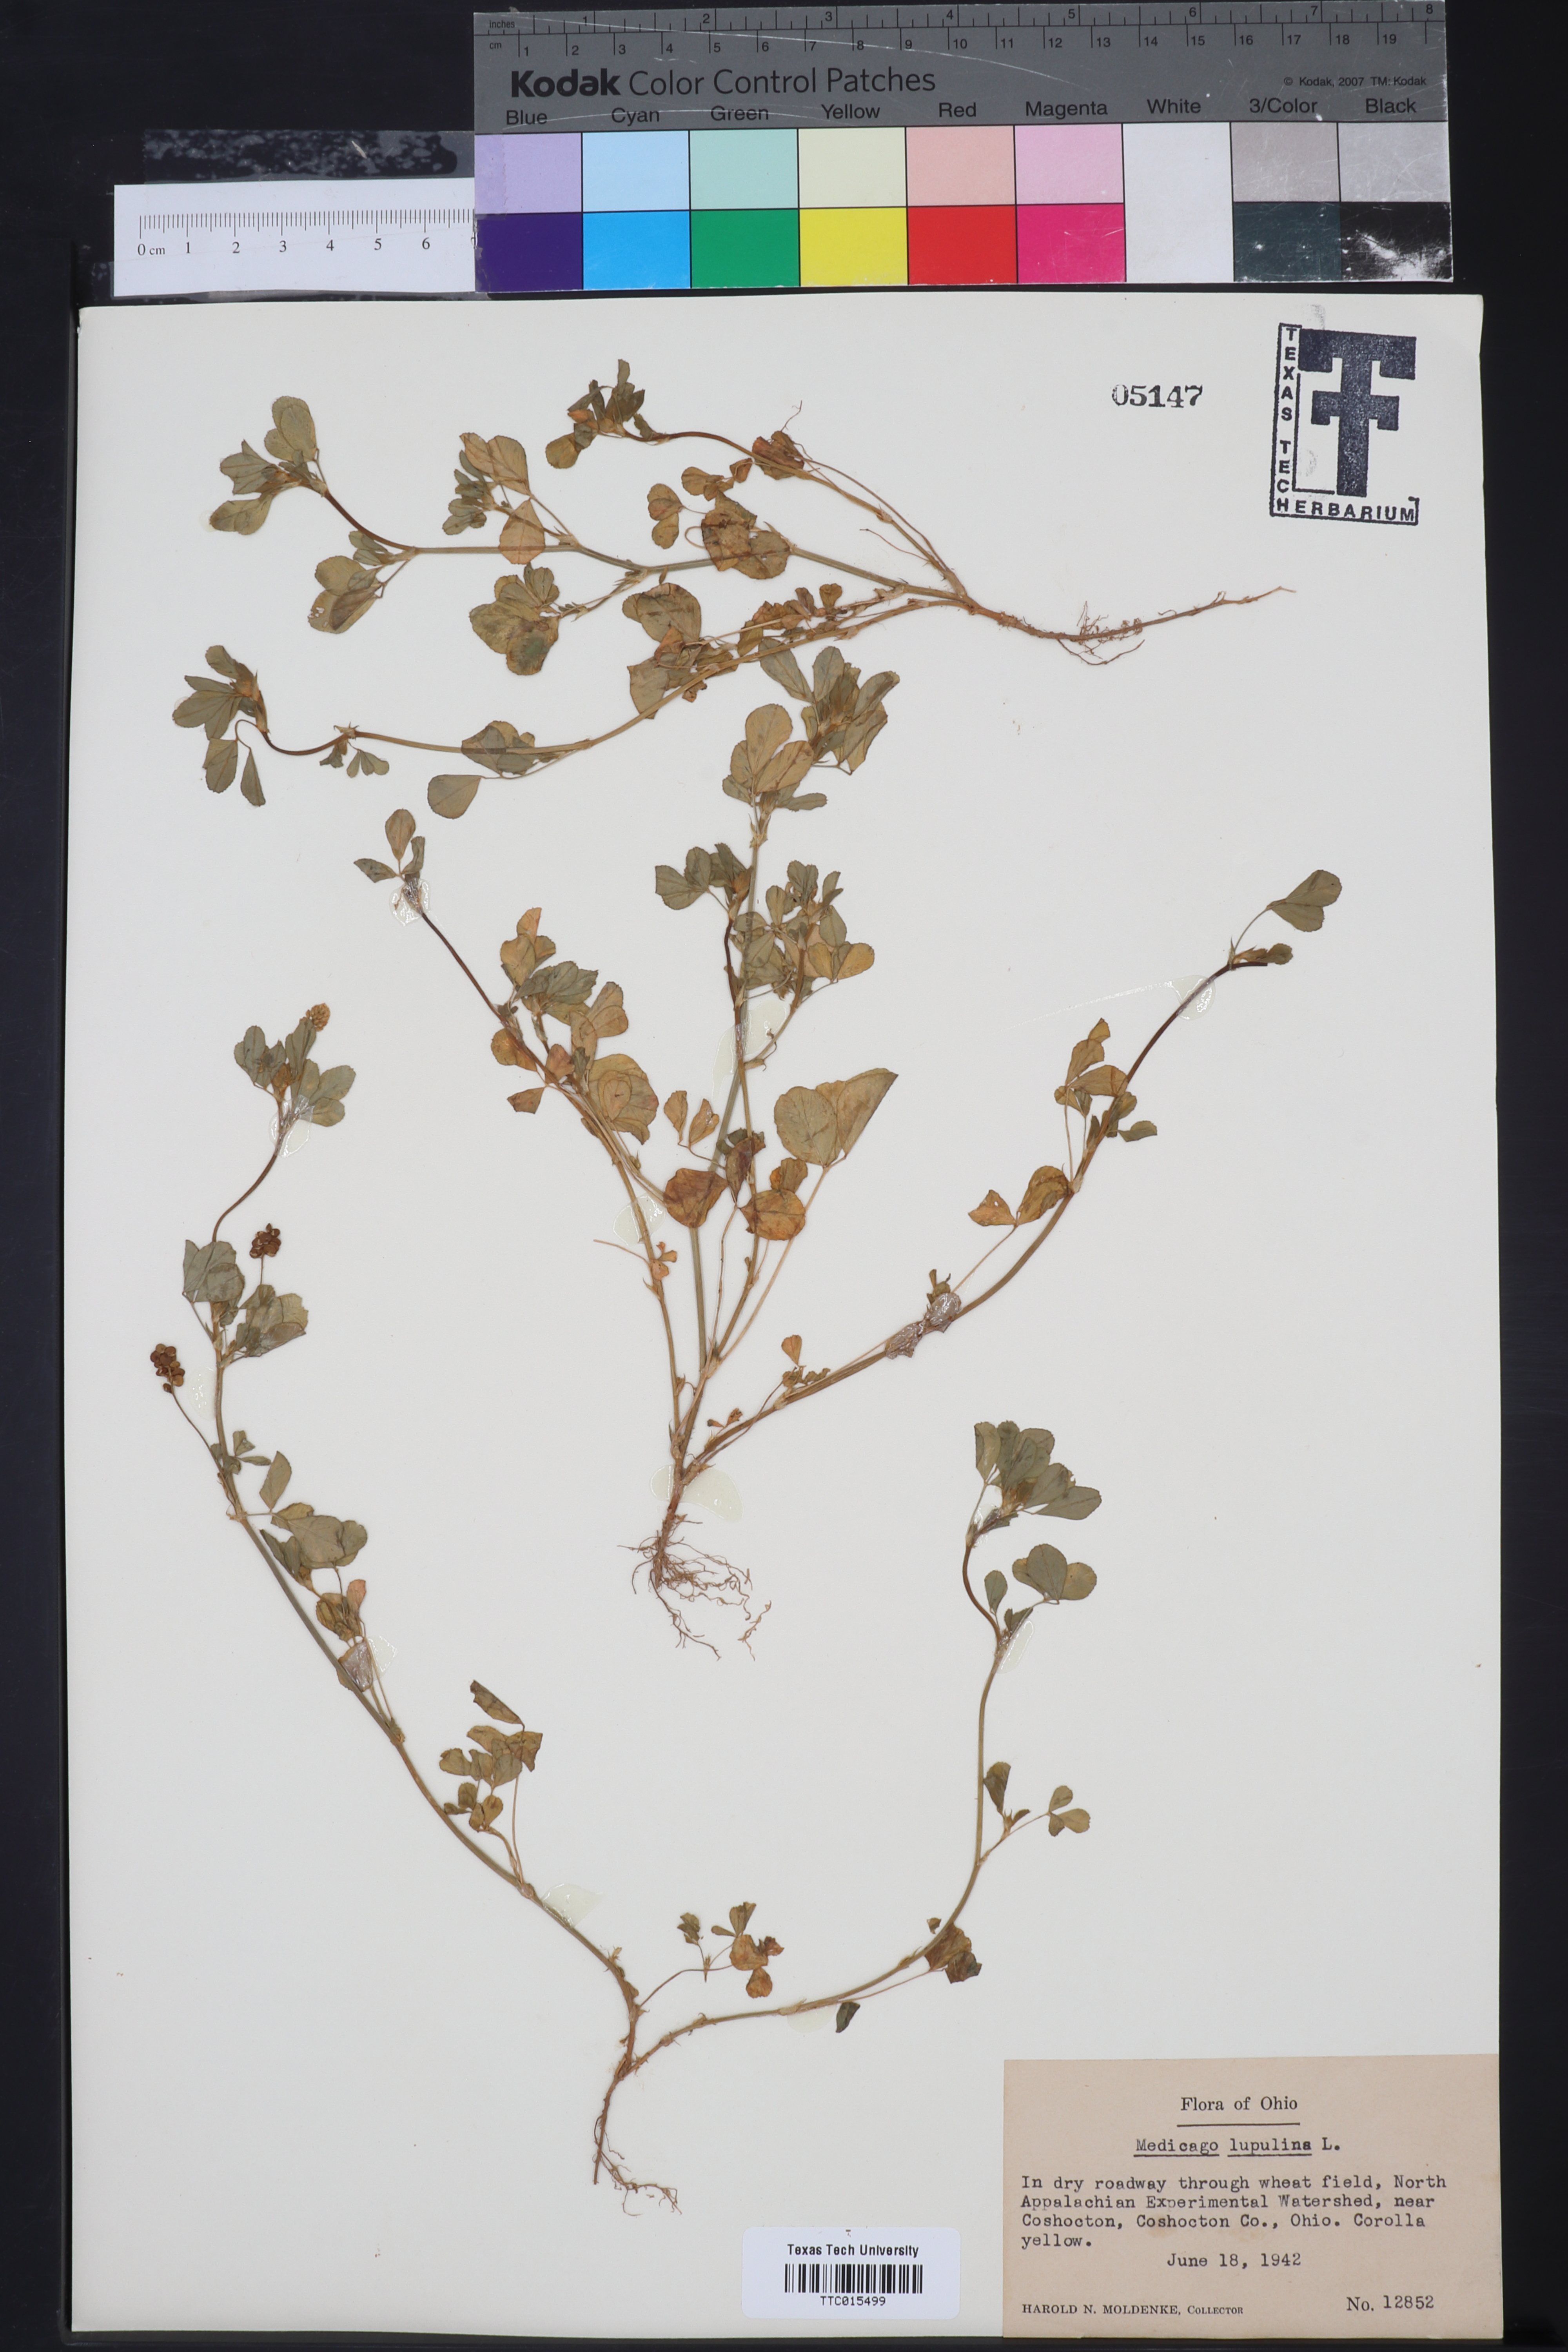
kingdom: Plantae
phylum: Tracheophyta
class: Magnoliopsida
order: Fabales
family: Fabaceae
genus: Medicago
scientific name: Medicago lupulina
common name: Black medick
